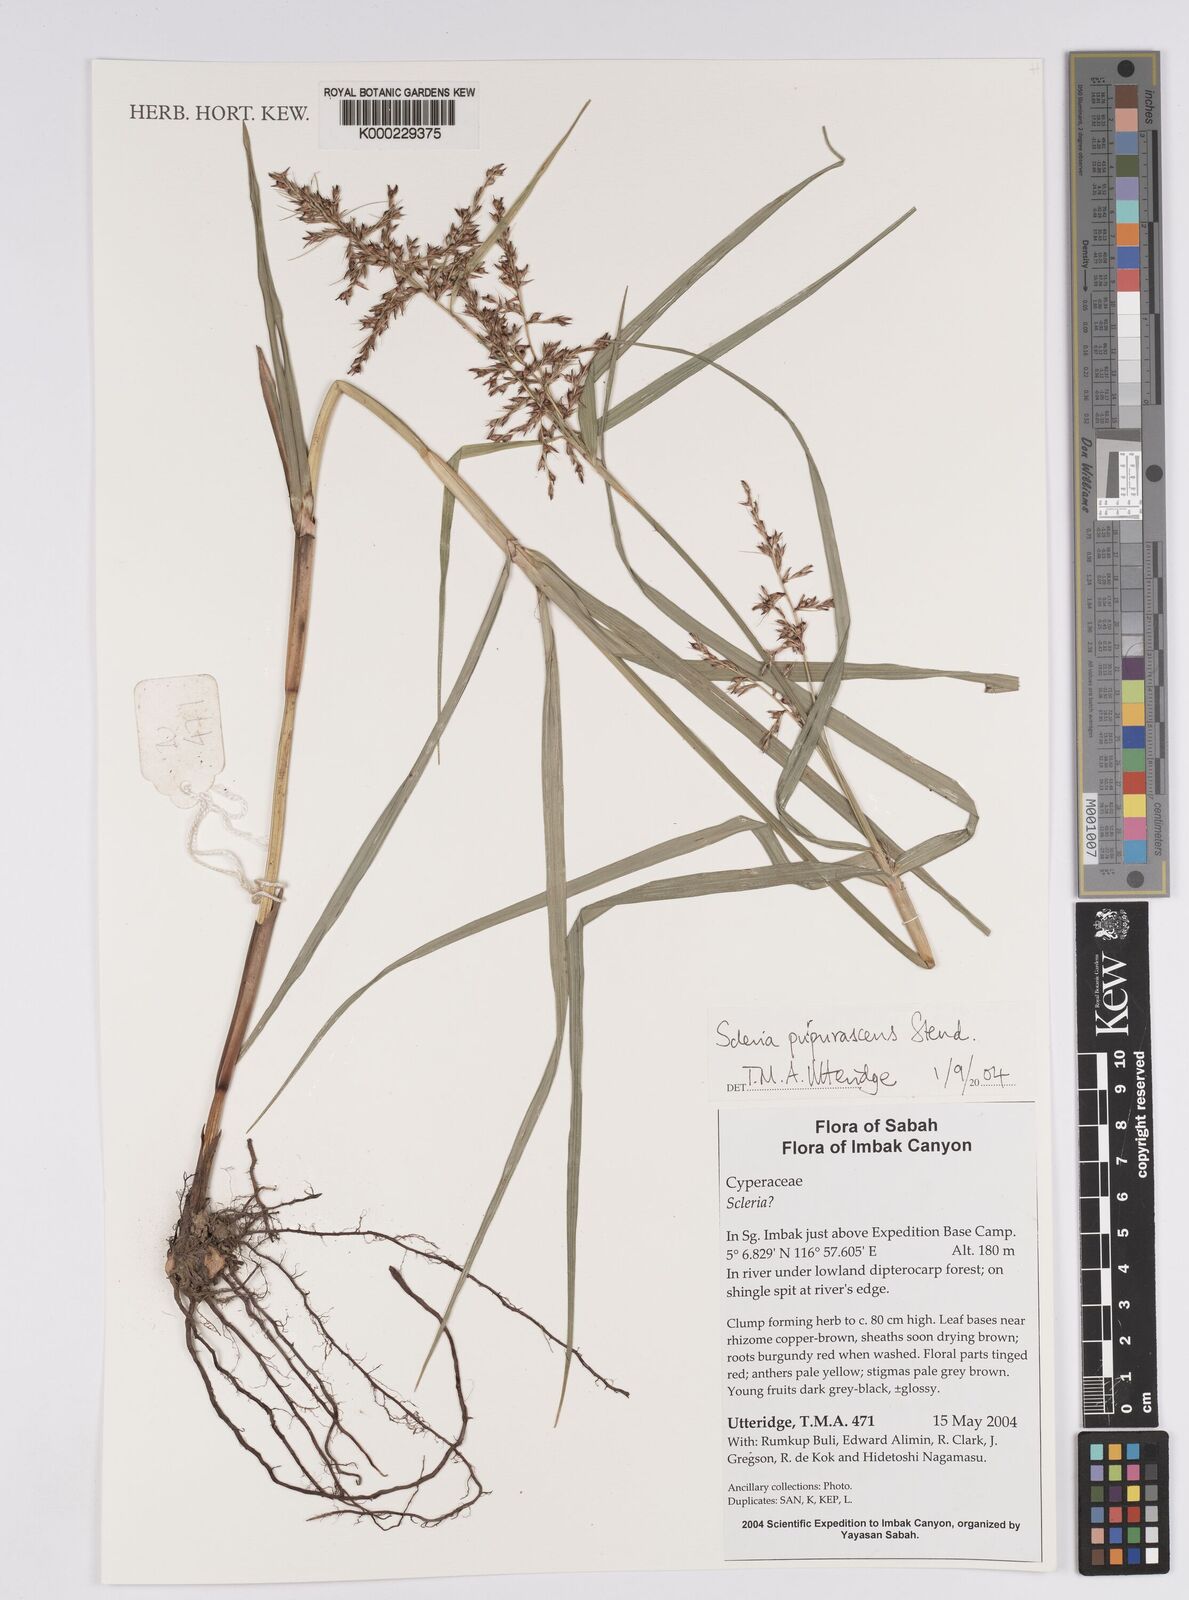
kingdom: Plantae
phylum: Tracheophyta
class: Liliopsida
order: Poales
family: Cyperaceae
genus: Scleria
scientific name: Scleria purpurascens
